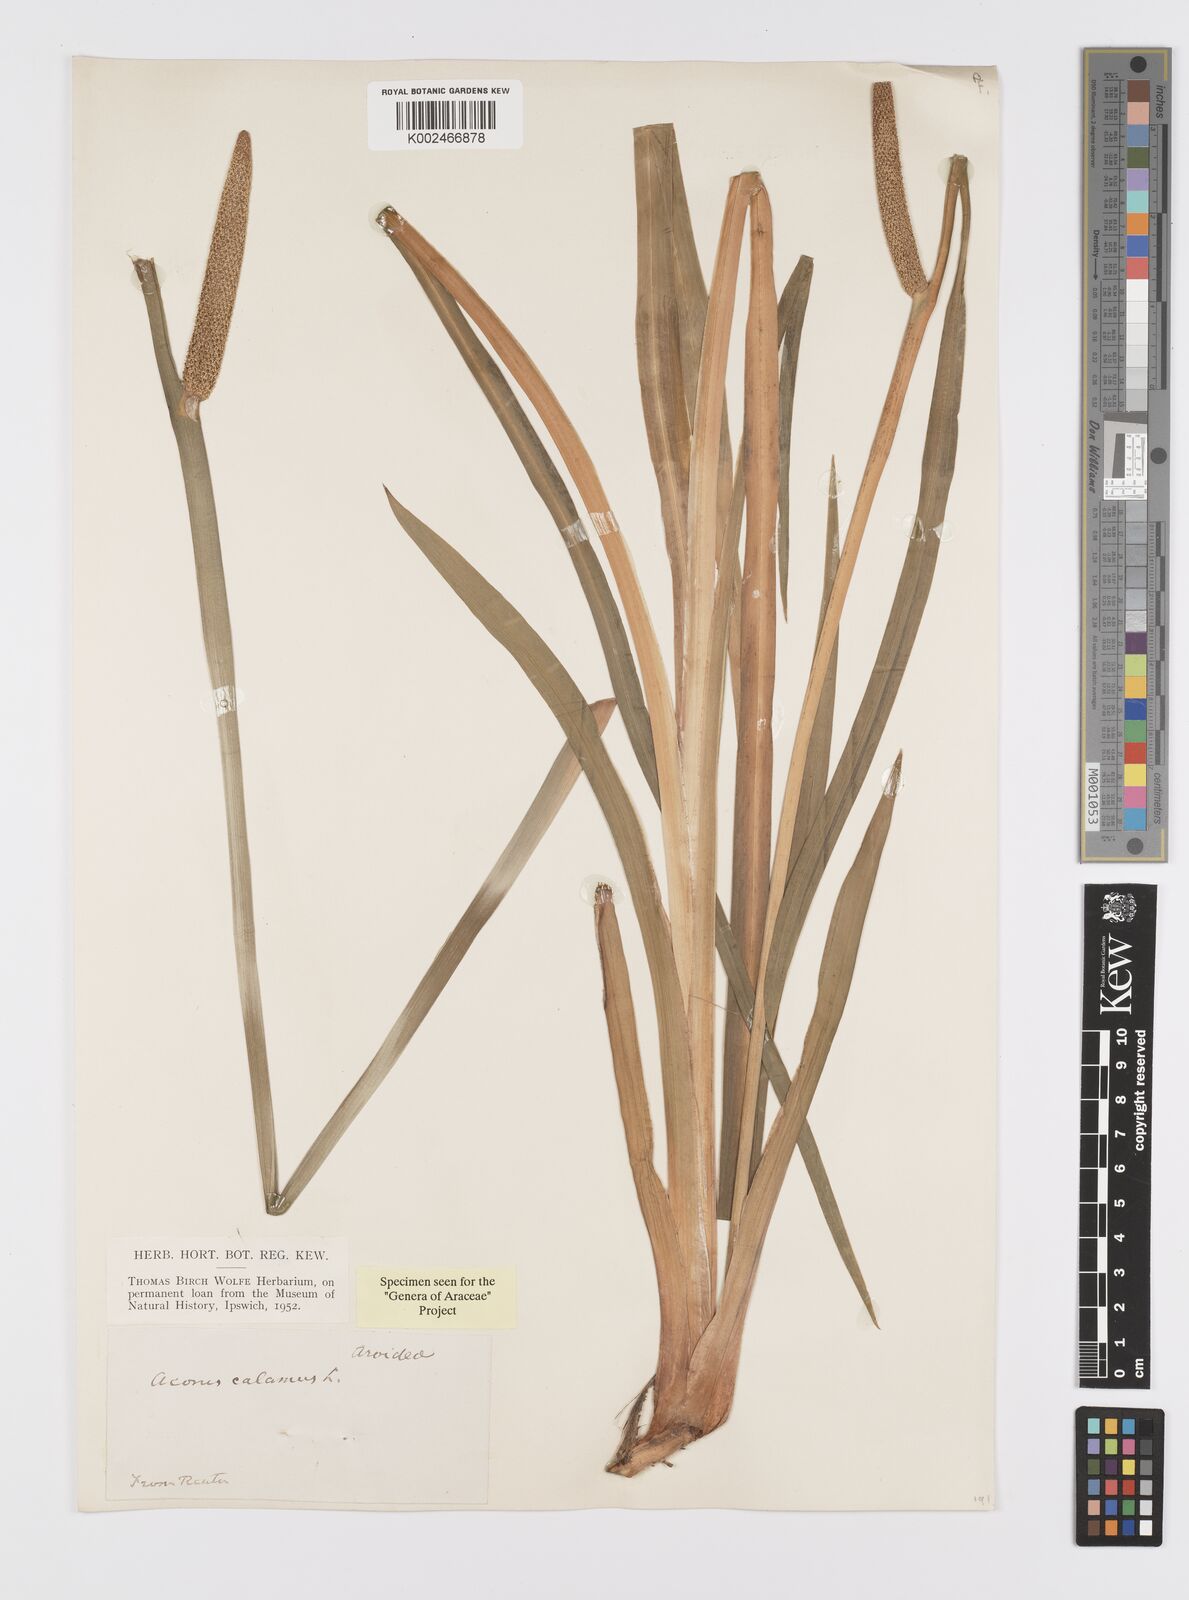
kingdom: Plantae
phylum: Tracheophyta
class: Liliopsida
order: Acorales
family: Acoraceae
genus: Acorus
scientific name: Acorus calamus
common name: Sweet-flag
